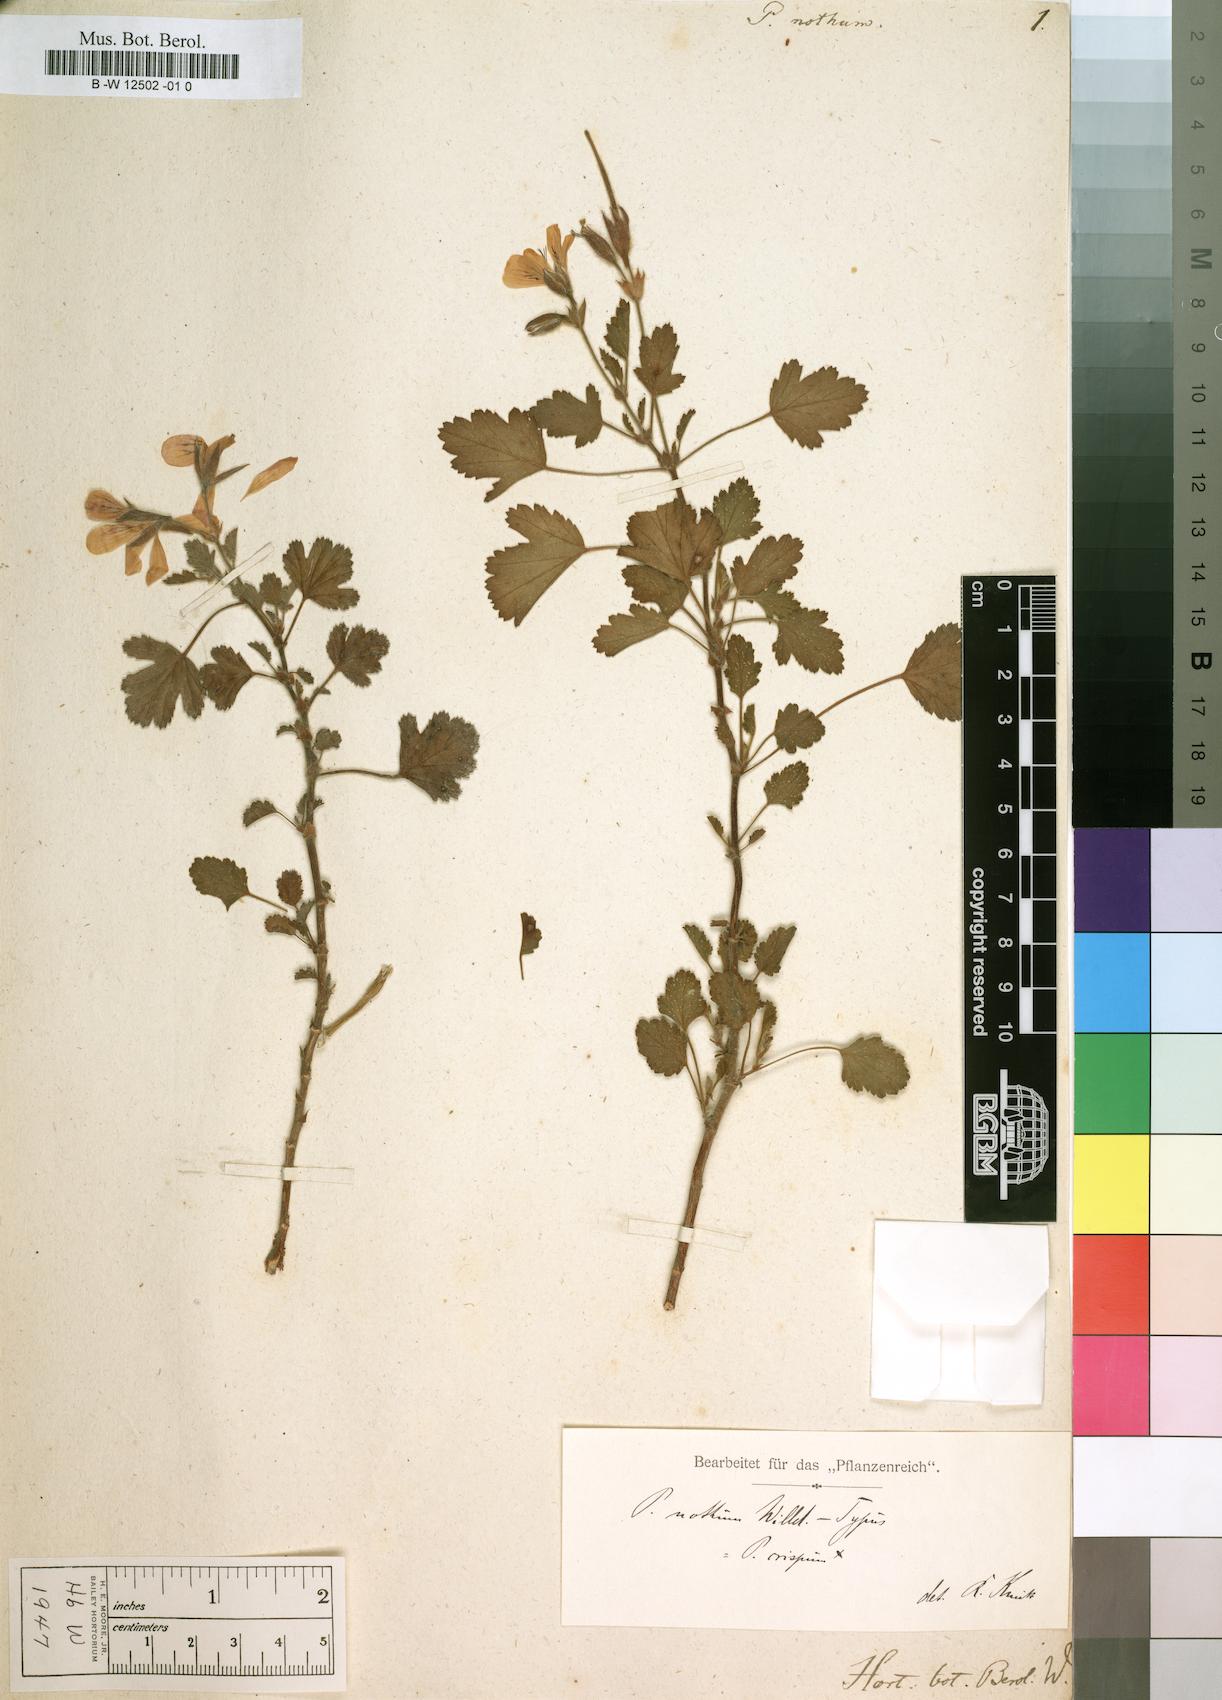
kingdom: Plantae
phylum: Tracheophyta
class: Magnoliopsida
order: Geraniales
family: Geraniaceae
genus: Pelargonium
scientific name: Pelargonium nothum
